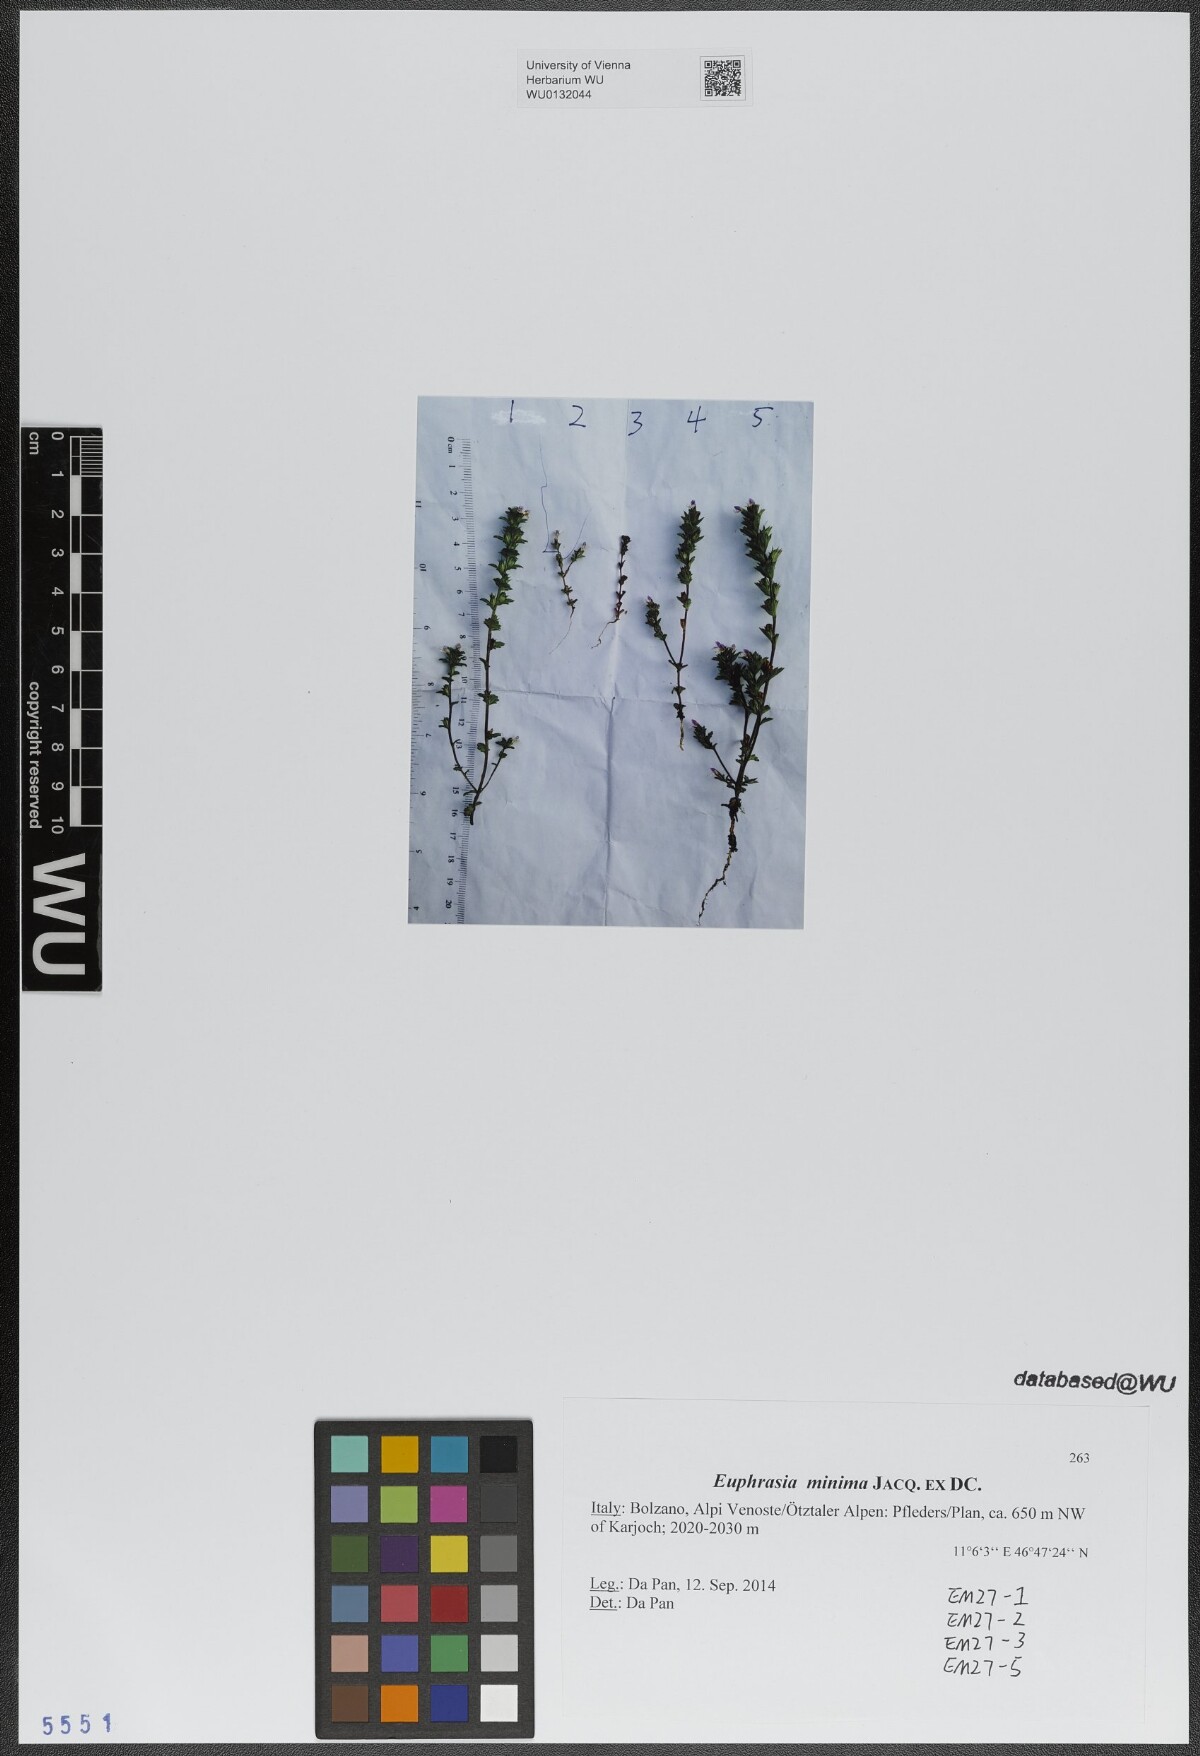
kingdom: Plantae
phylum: Tracheophyta
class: Magnoliopsida
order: Lamiales
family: Orobanchaceae
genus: Euphrasia
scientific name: Euphrasia minima
